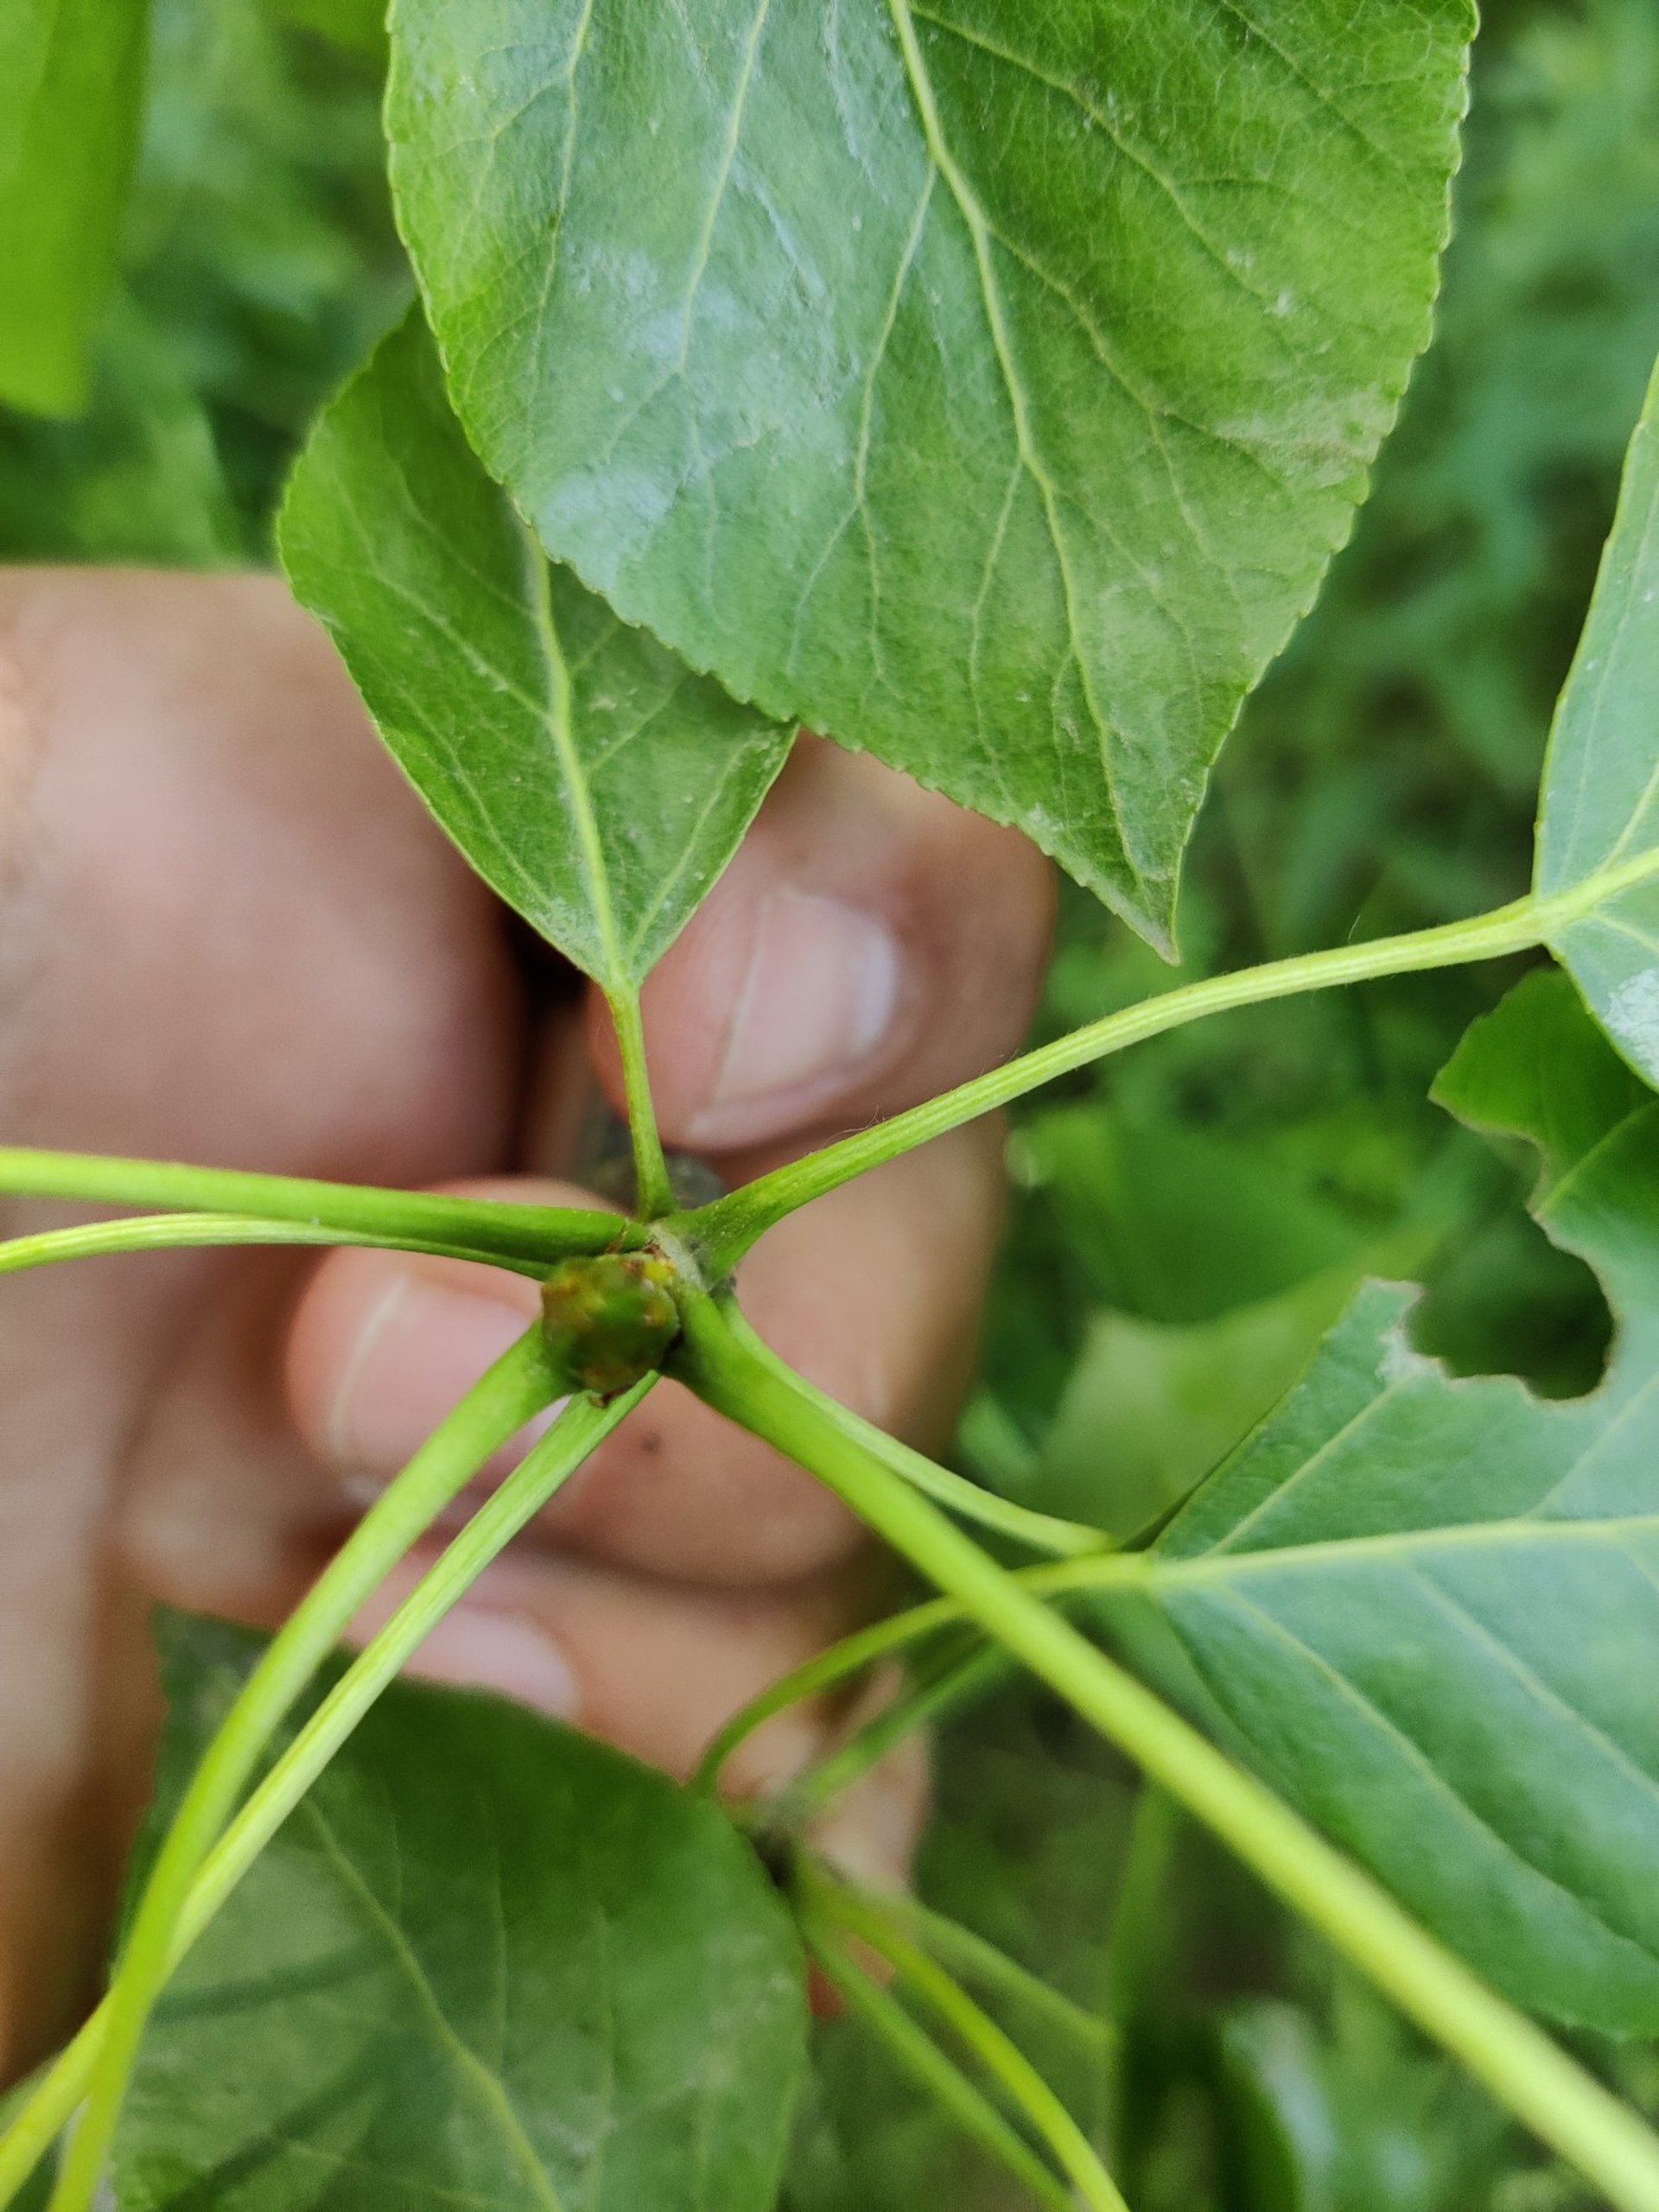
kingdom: Plantae
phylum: Tracheophyta
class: Magnoliopsida
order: Malpighiales
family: Salicaceae
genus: Populus
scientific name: Populus berolinensis
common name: Berliner-poppel
